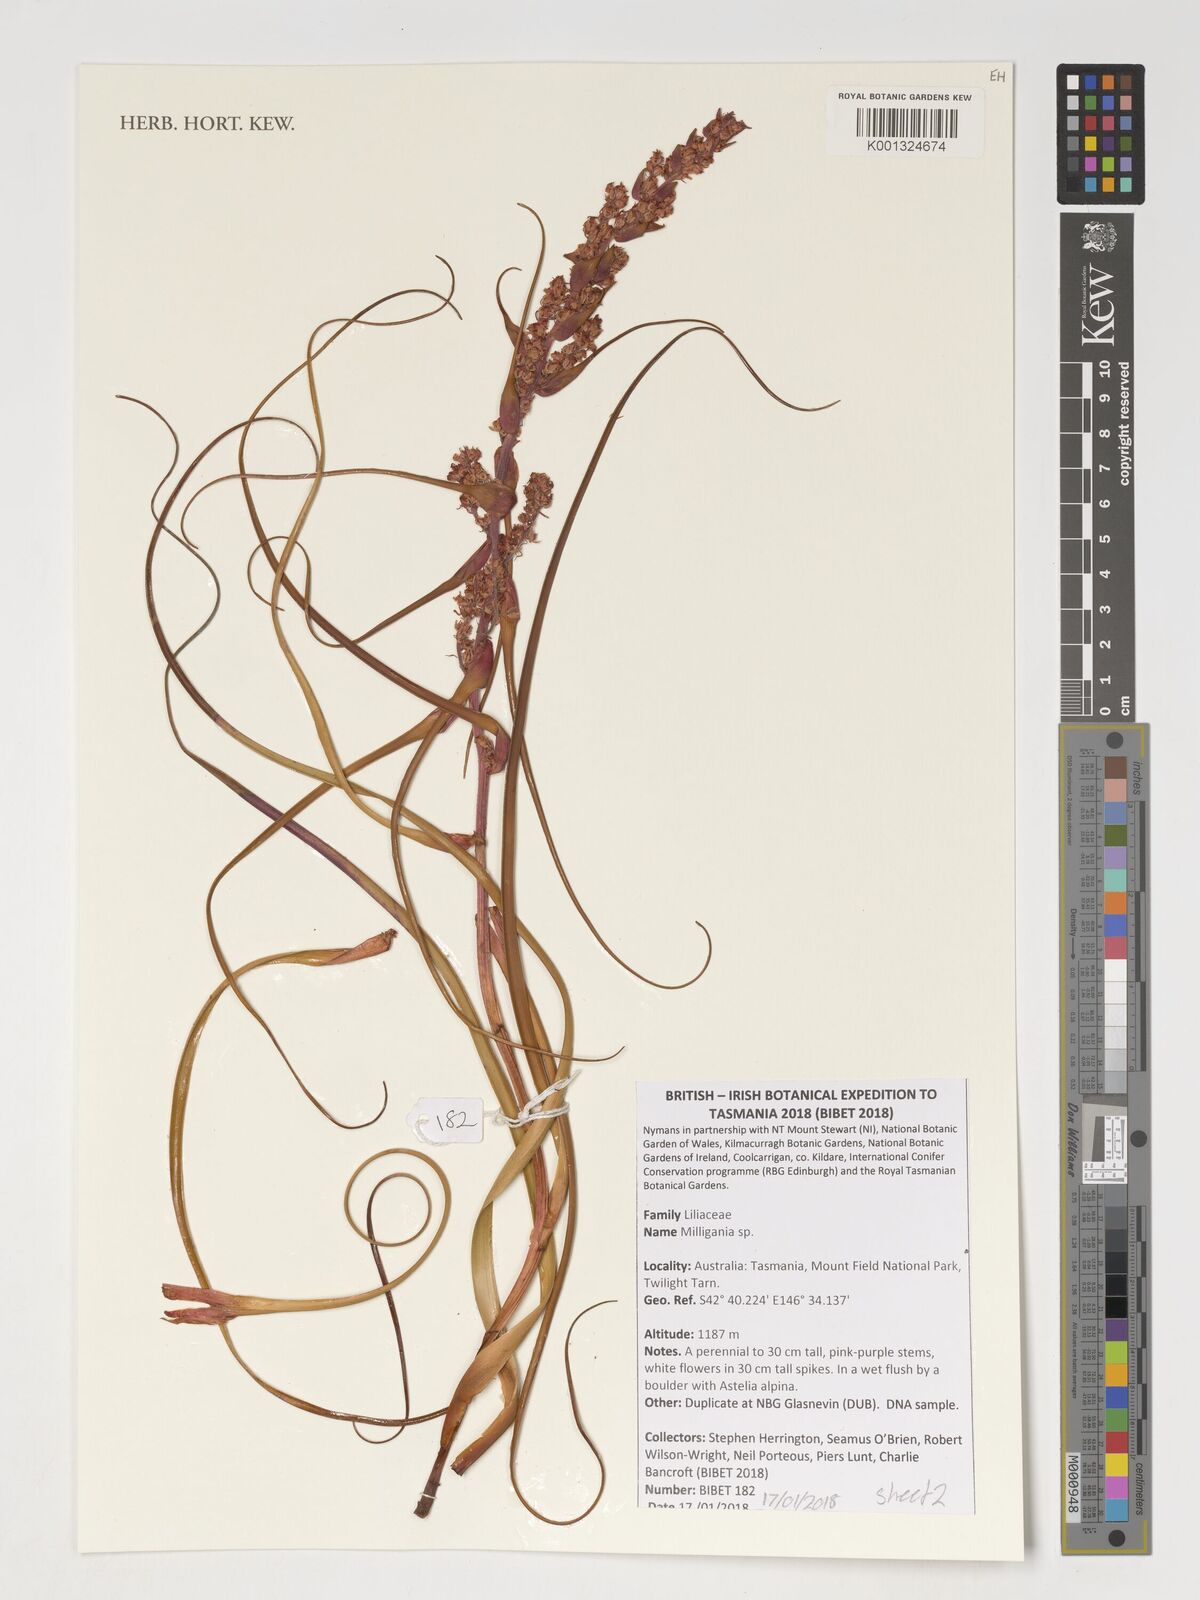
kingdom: Plantae
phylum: Tracheophyta
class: Liliopsida
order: Asparagales
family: Asteliaceae
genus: Milligania
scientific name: Milligania
